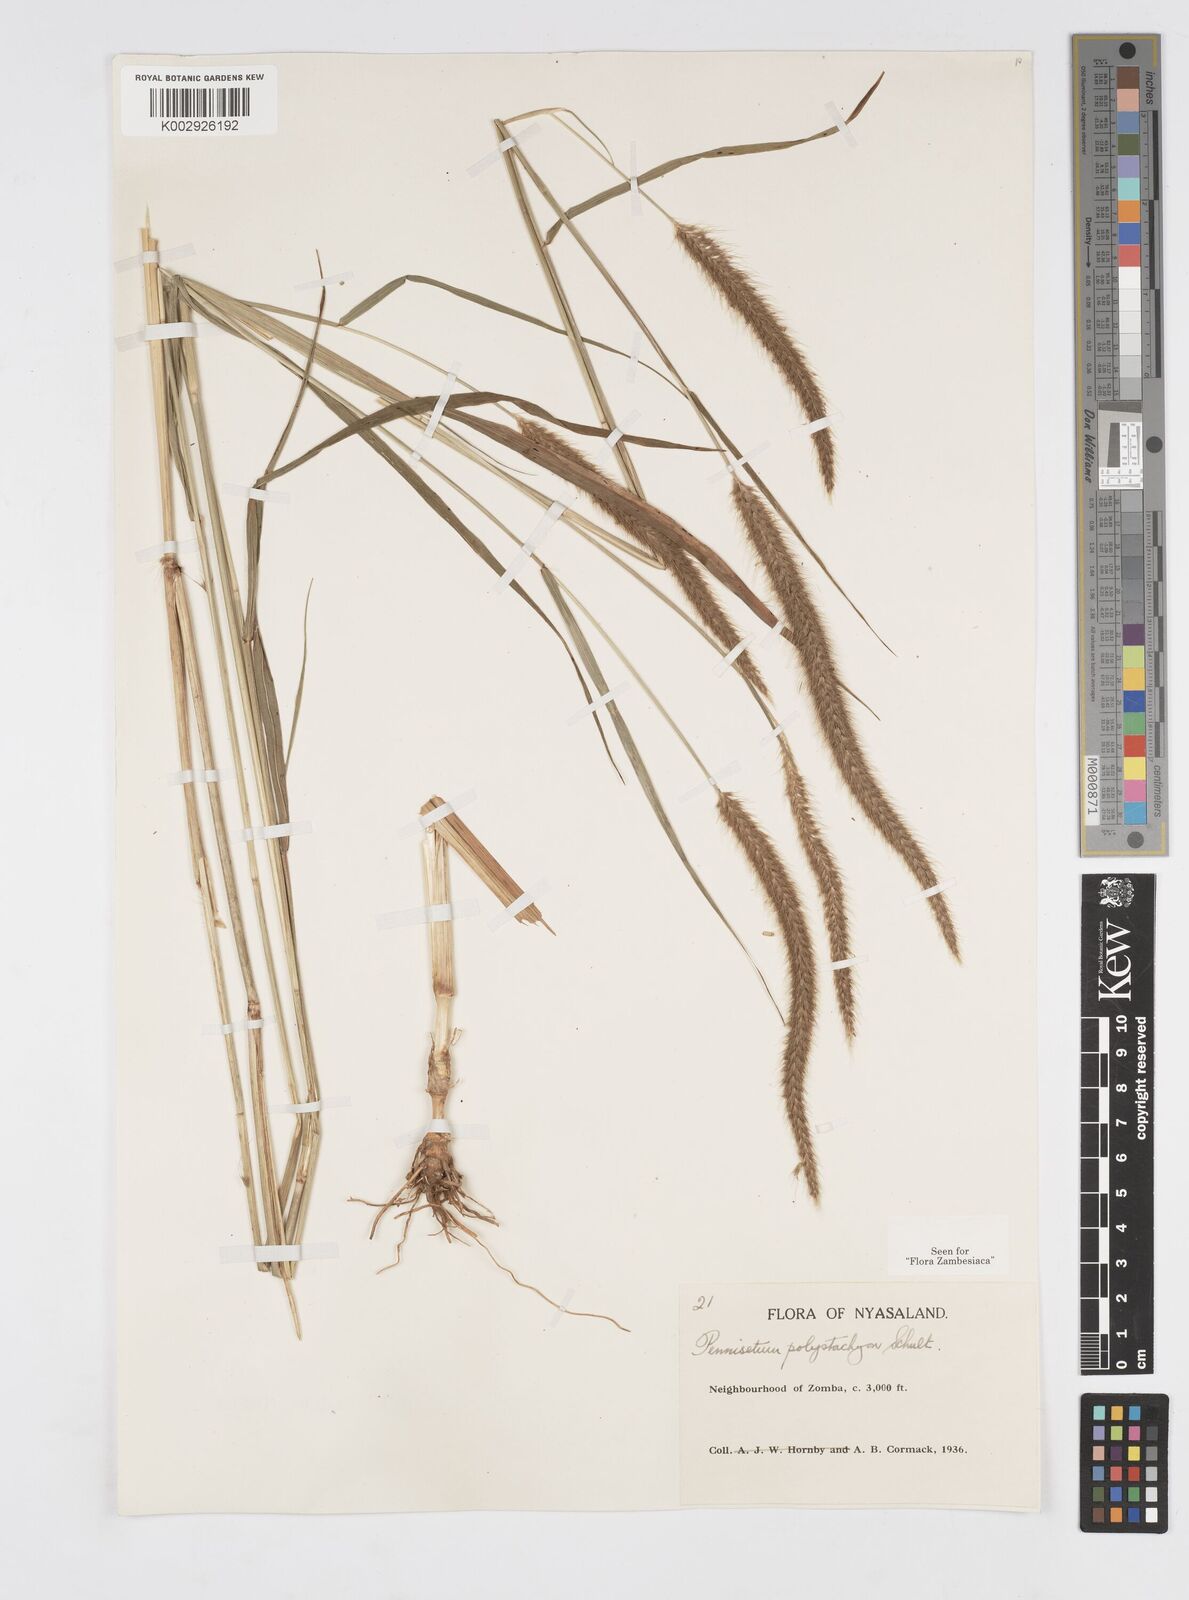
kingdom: Plantae
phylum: Tracheophyta
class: Liliopsida
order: Poales
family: Poaceae
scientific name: Poaceae
